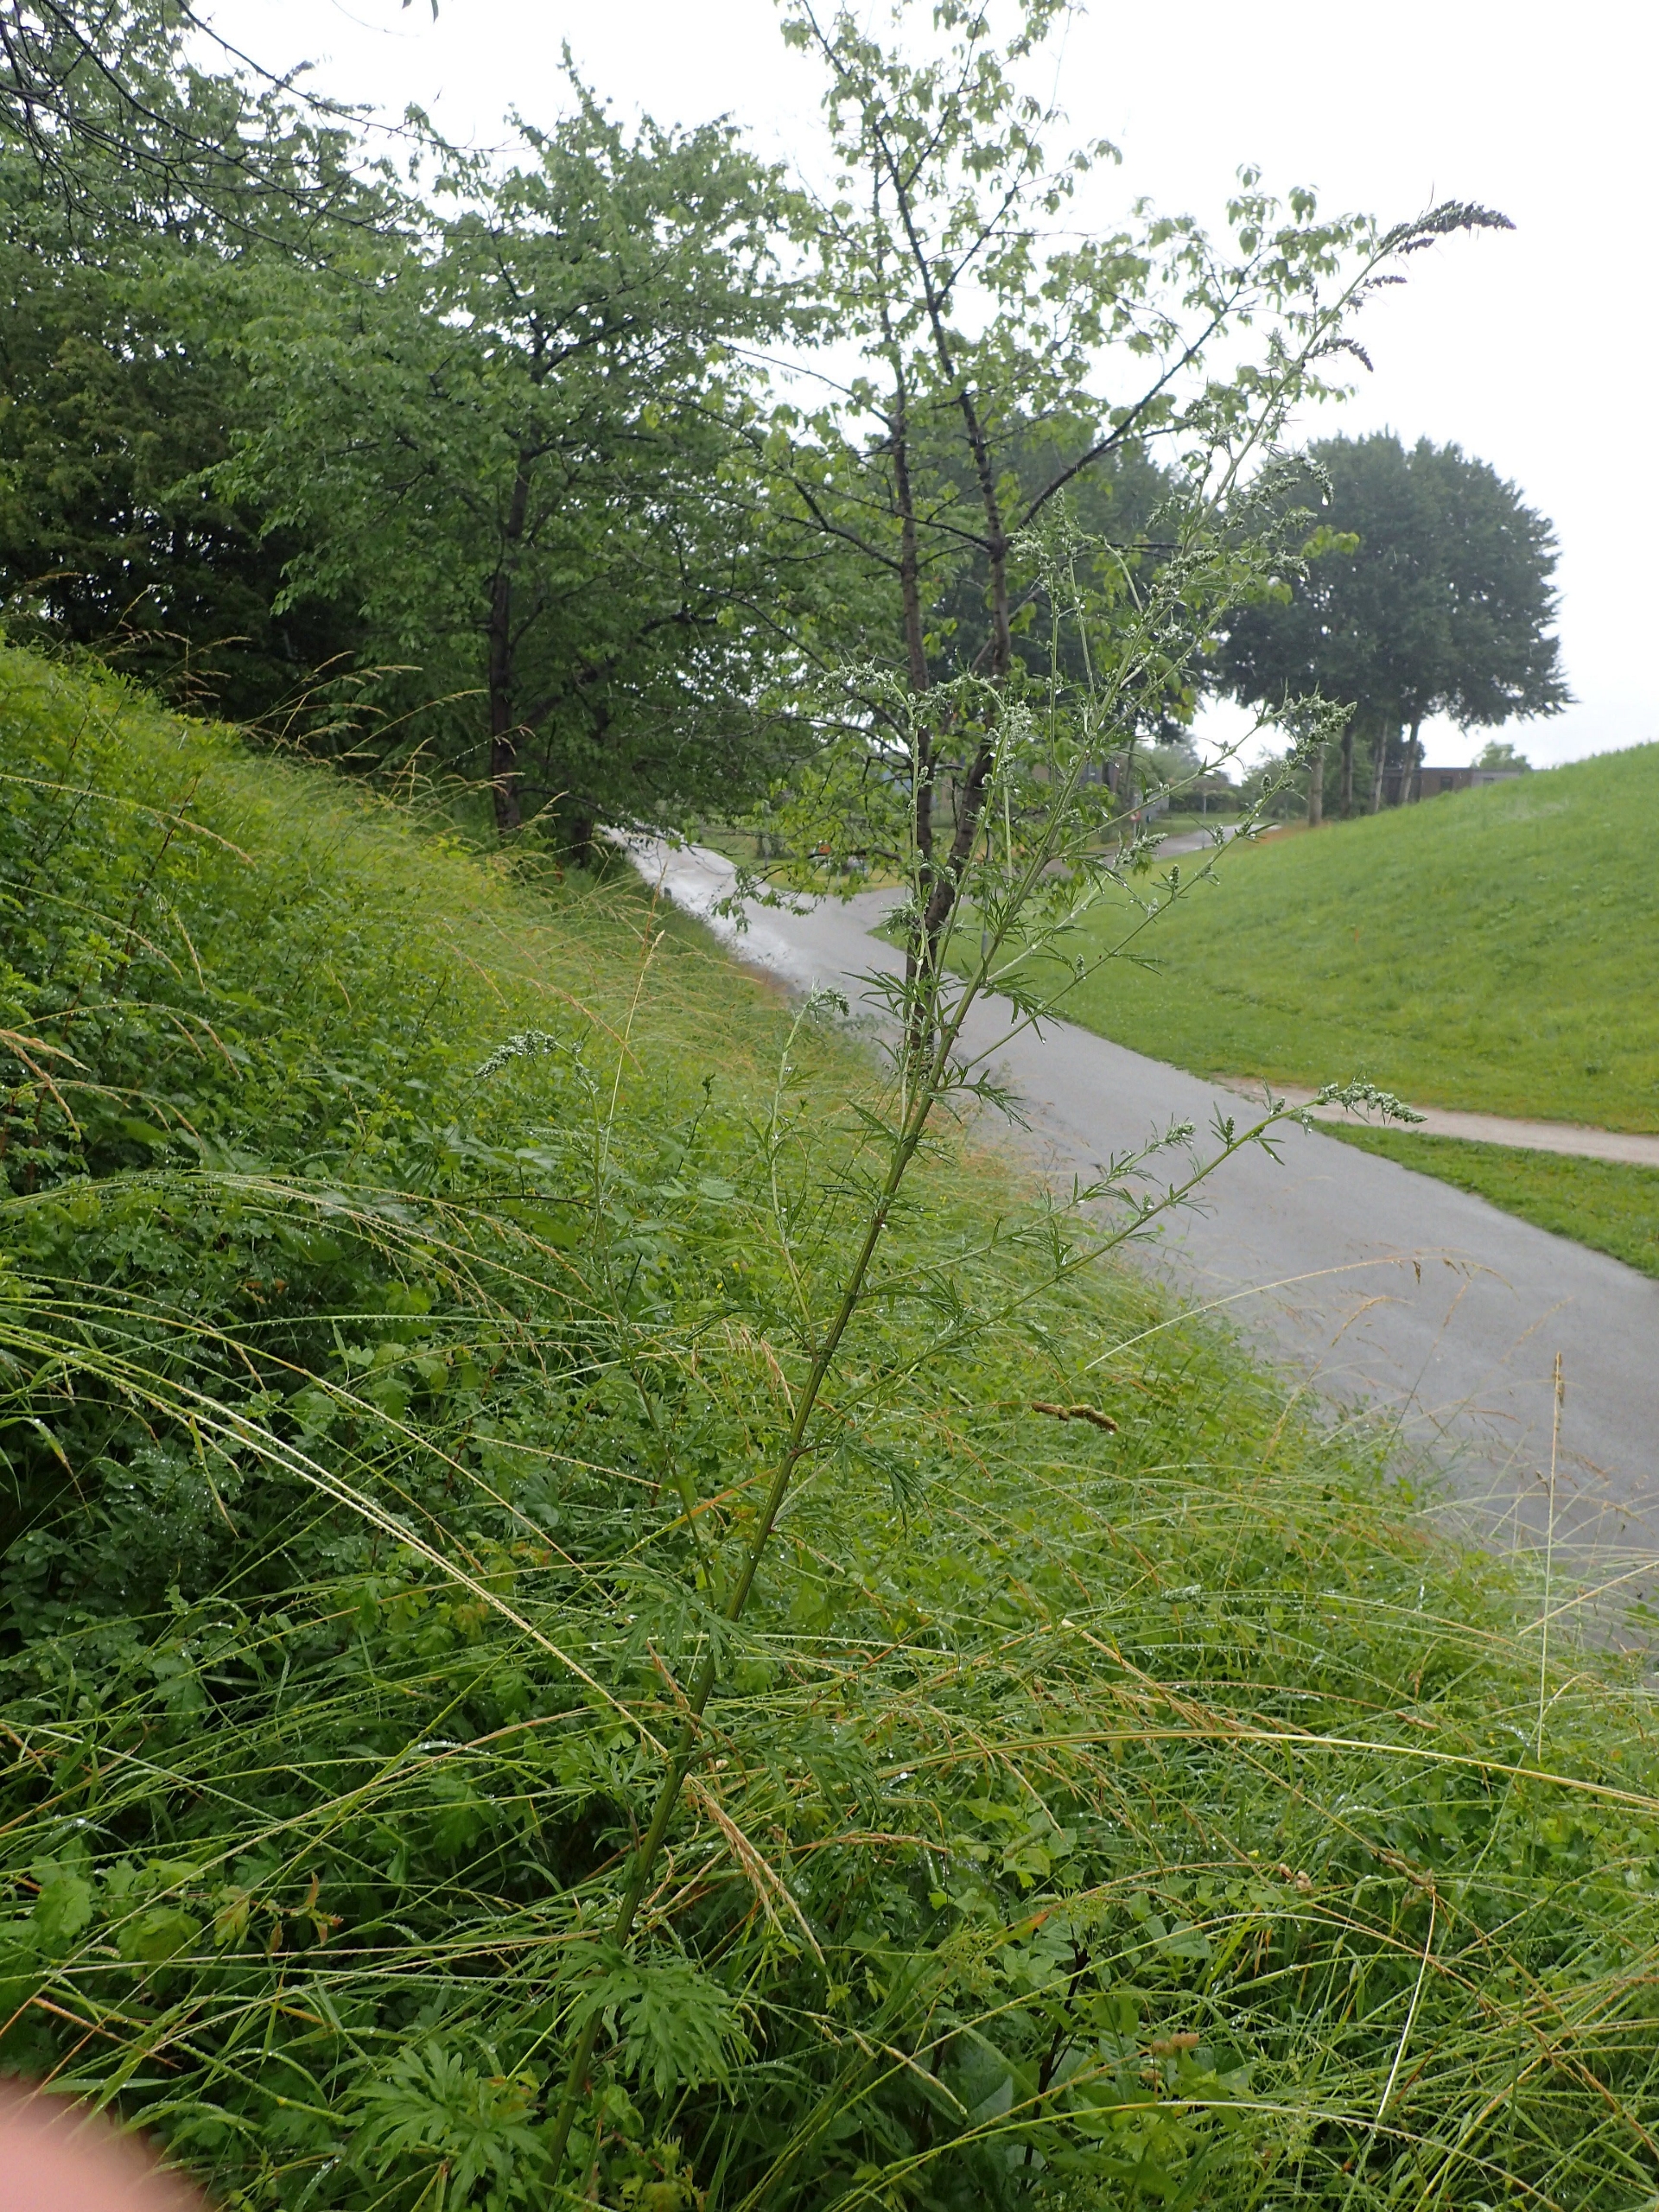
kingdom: Plantae
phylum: Tracheophyta
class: Magnoliopsida
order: Asterales
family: Asteraceae
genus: Artemisia
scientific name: Artemisia vulgaris
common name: Grå-bynke
